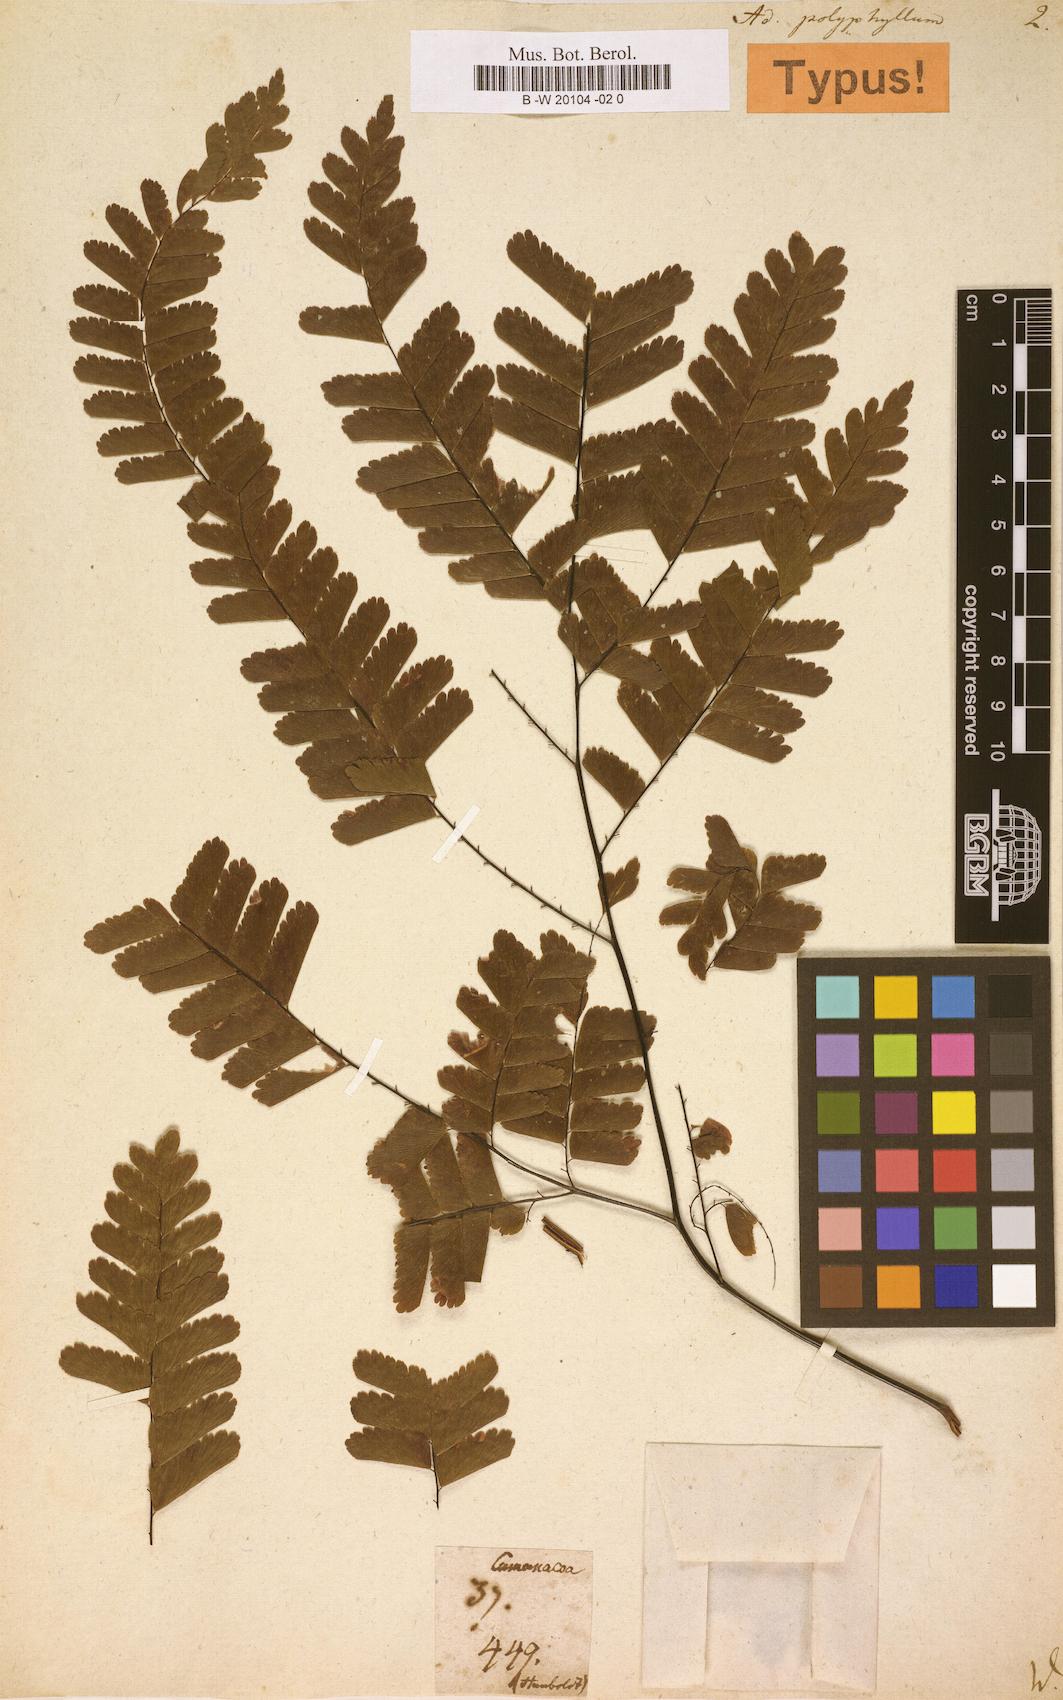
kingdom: Plantae
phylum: Tracheophyta
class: Polypodiopsida
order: Polypodiales
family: Pteridaceae
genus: Adiantum
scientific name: Adiantum polyphyllum
